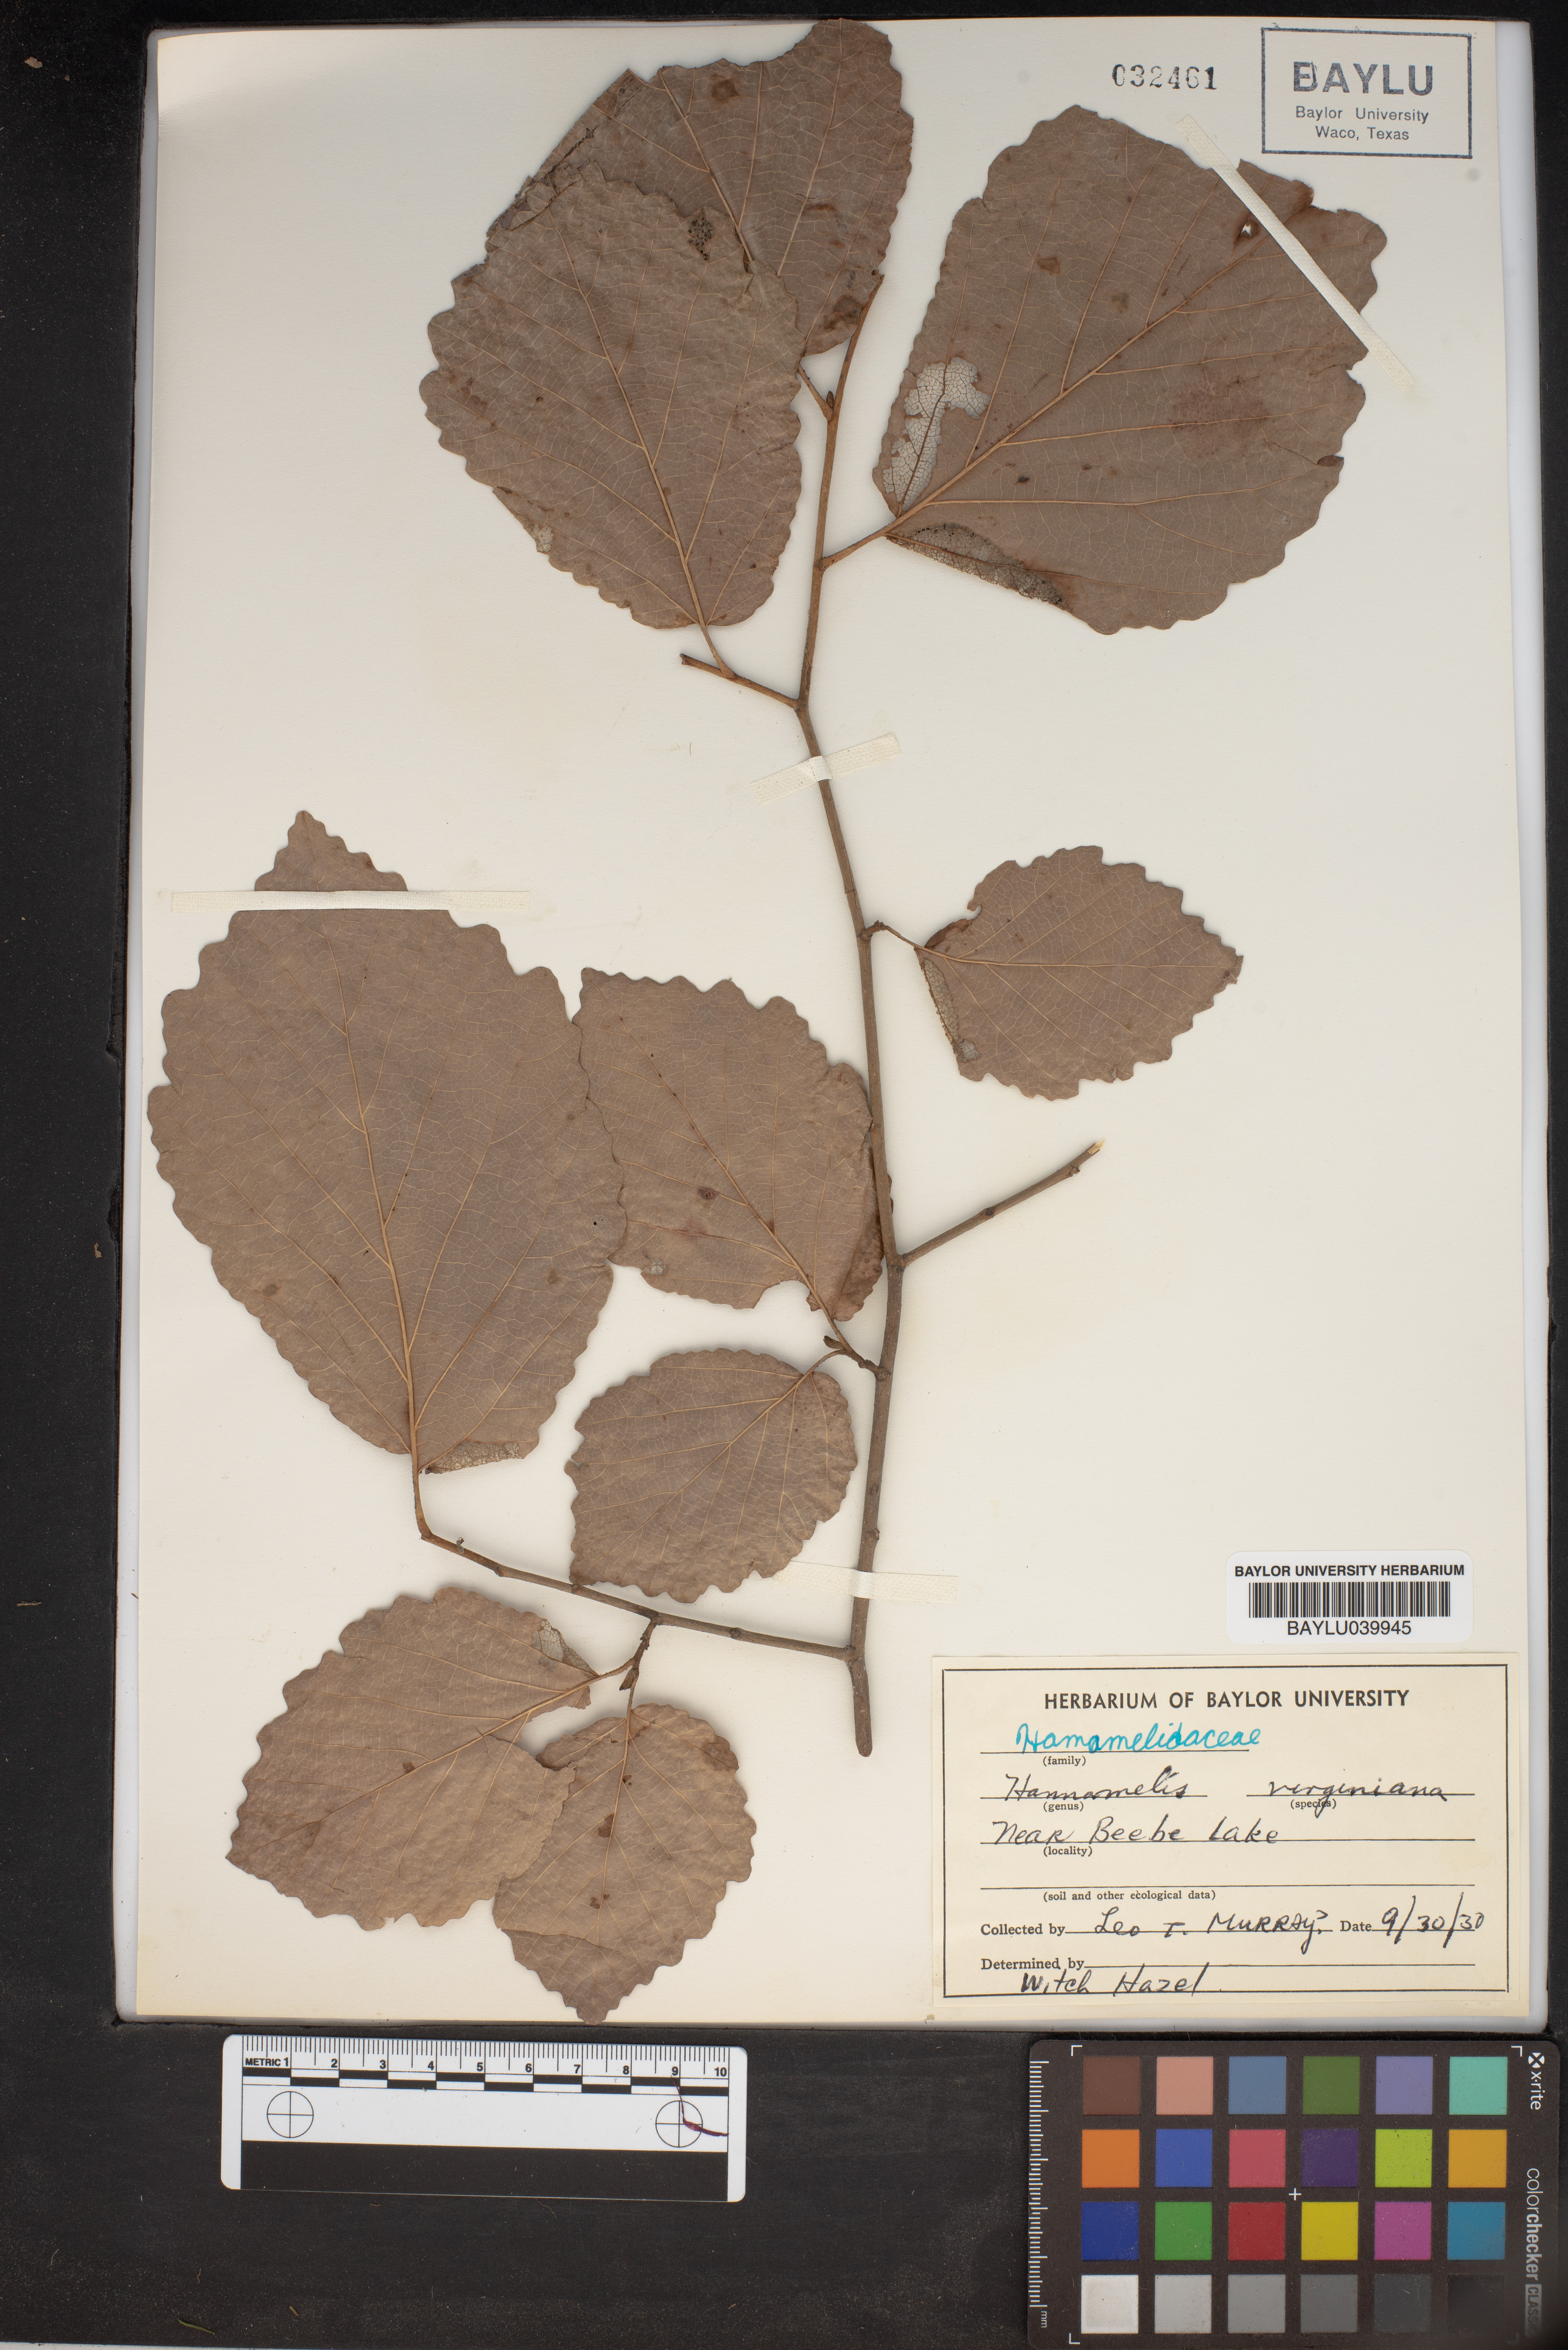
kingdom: Plantae
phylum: Tracheophyta
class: Magnoliopsida
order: Saxifragales
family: Hamamelidaceae
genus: Hamamelis
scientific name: Hamamelis virginiana
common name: Witch-hazel
